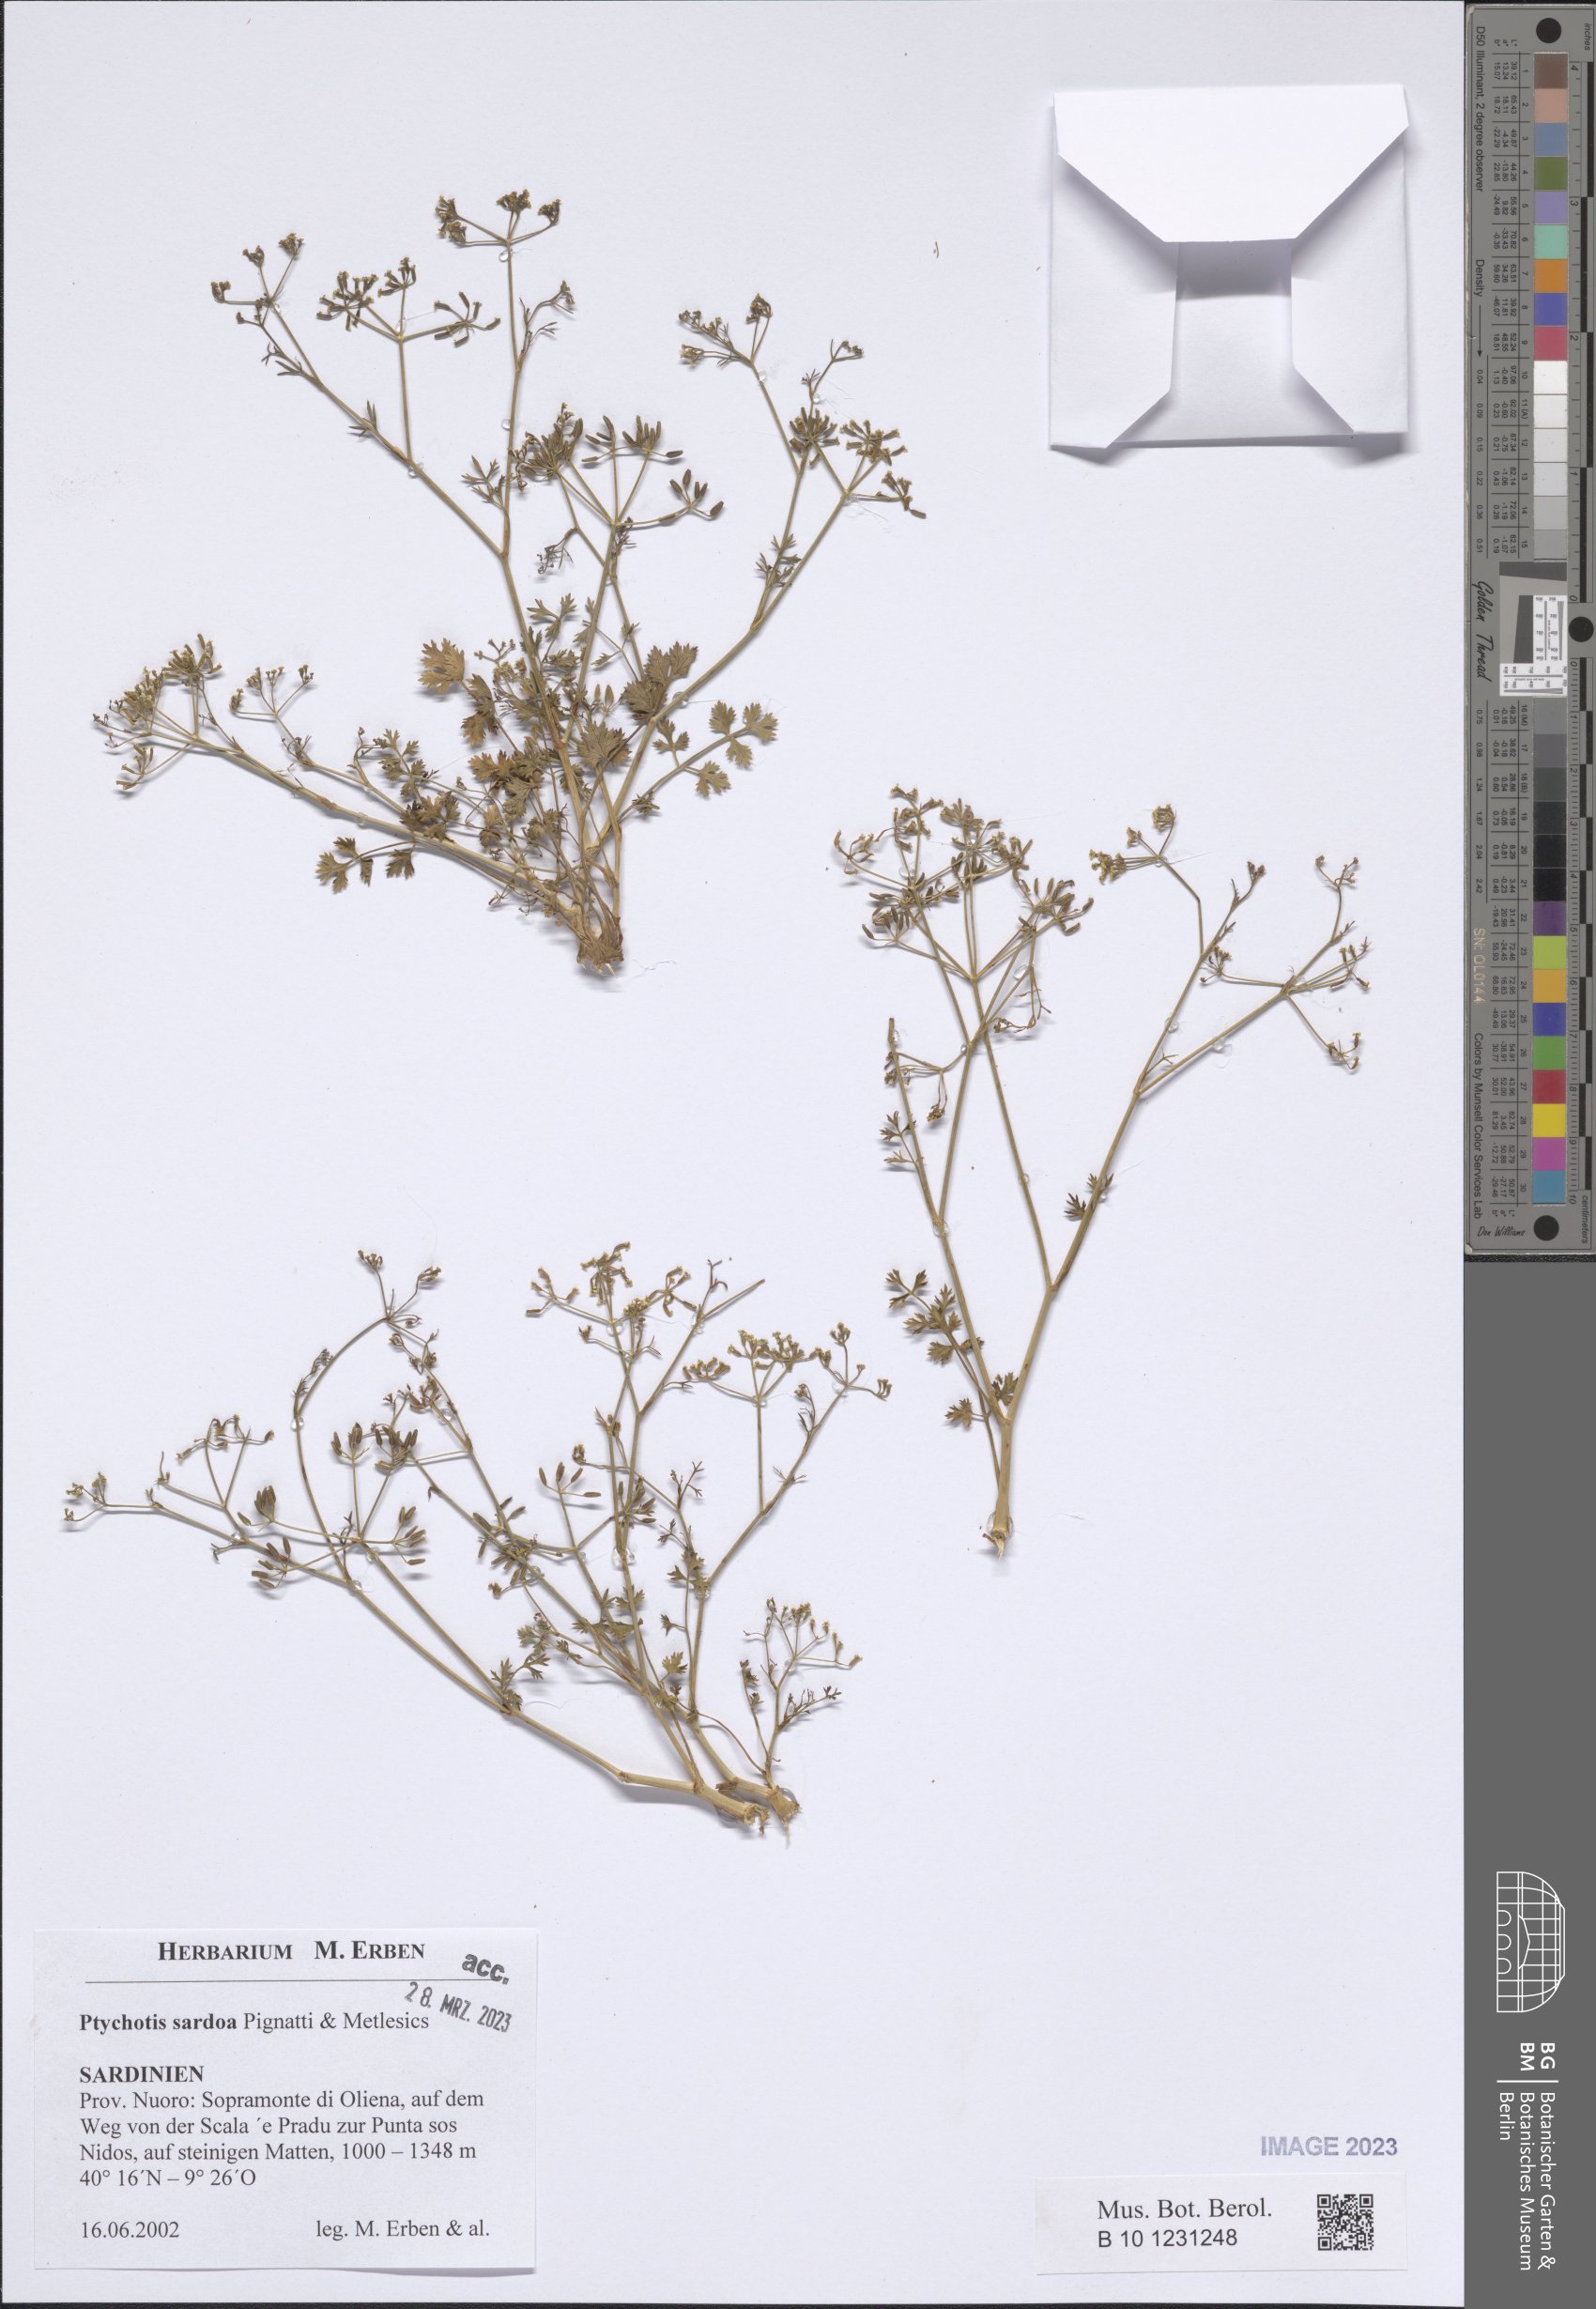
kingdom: Plantae
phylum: Tracheophyta
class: Magnoliopsida
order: Apiales
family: Apiaceae
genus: Ptychotis
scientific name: Ptychotis sardoa
